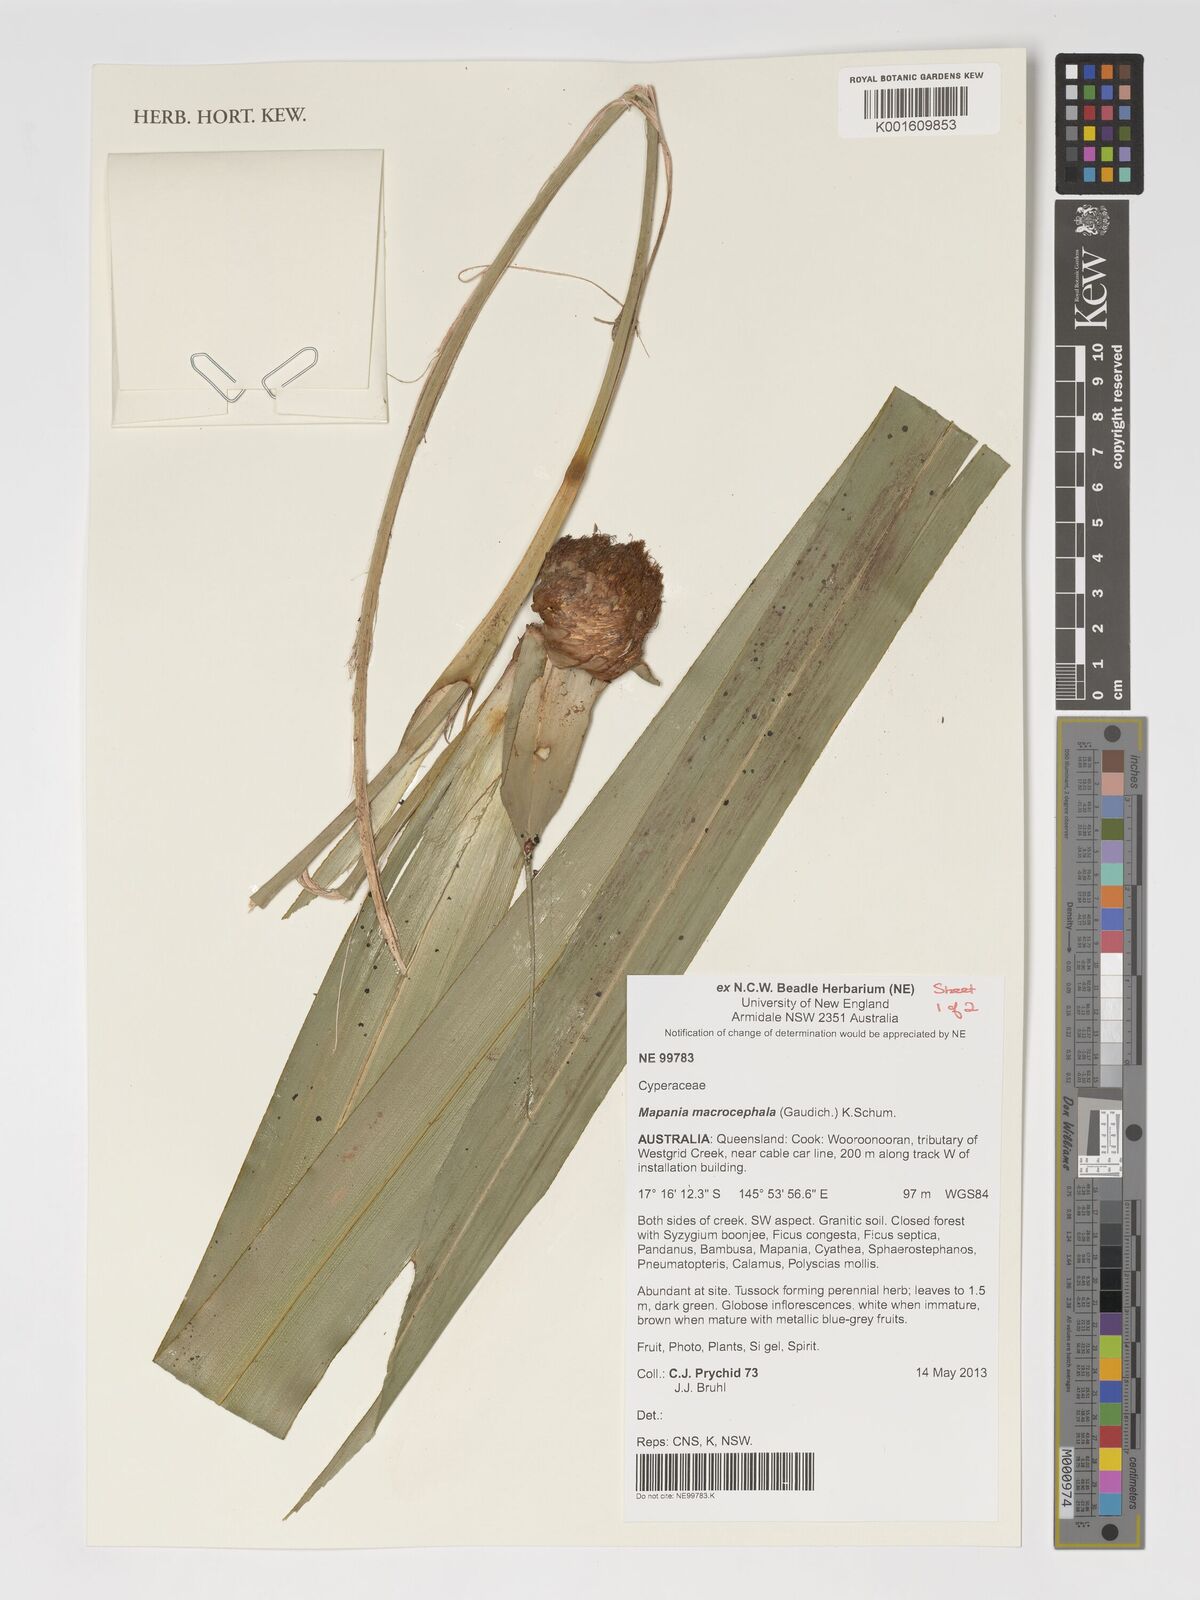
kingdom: Plantae
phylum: Tracheophyta
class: Liliopsida
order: Poales
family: Cyperaceae
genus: Mapania
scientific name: Mapania macrocephala
